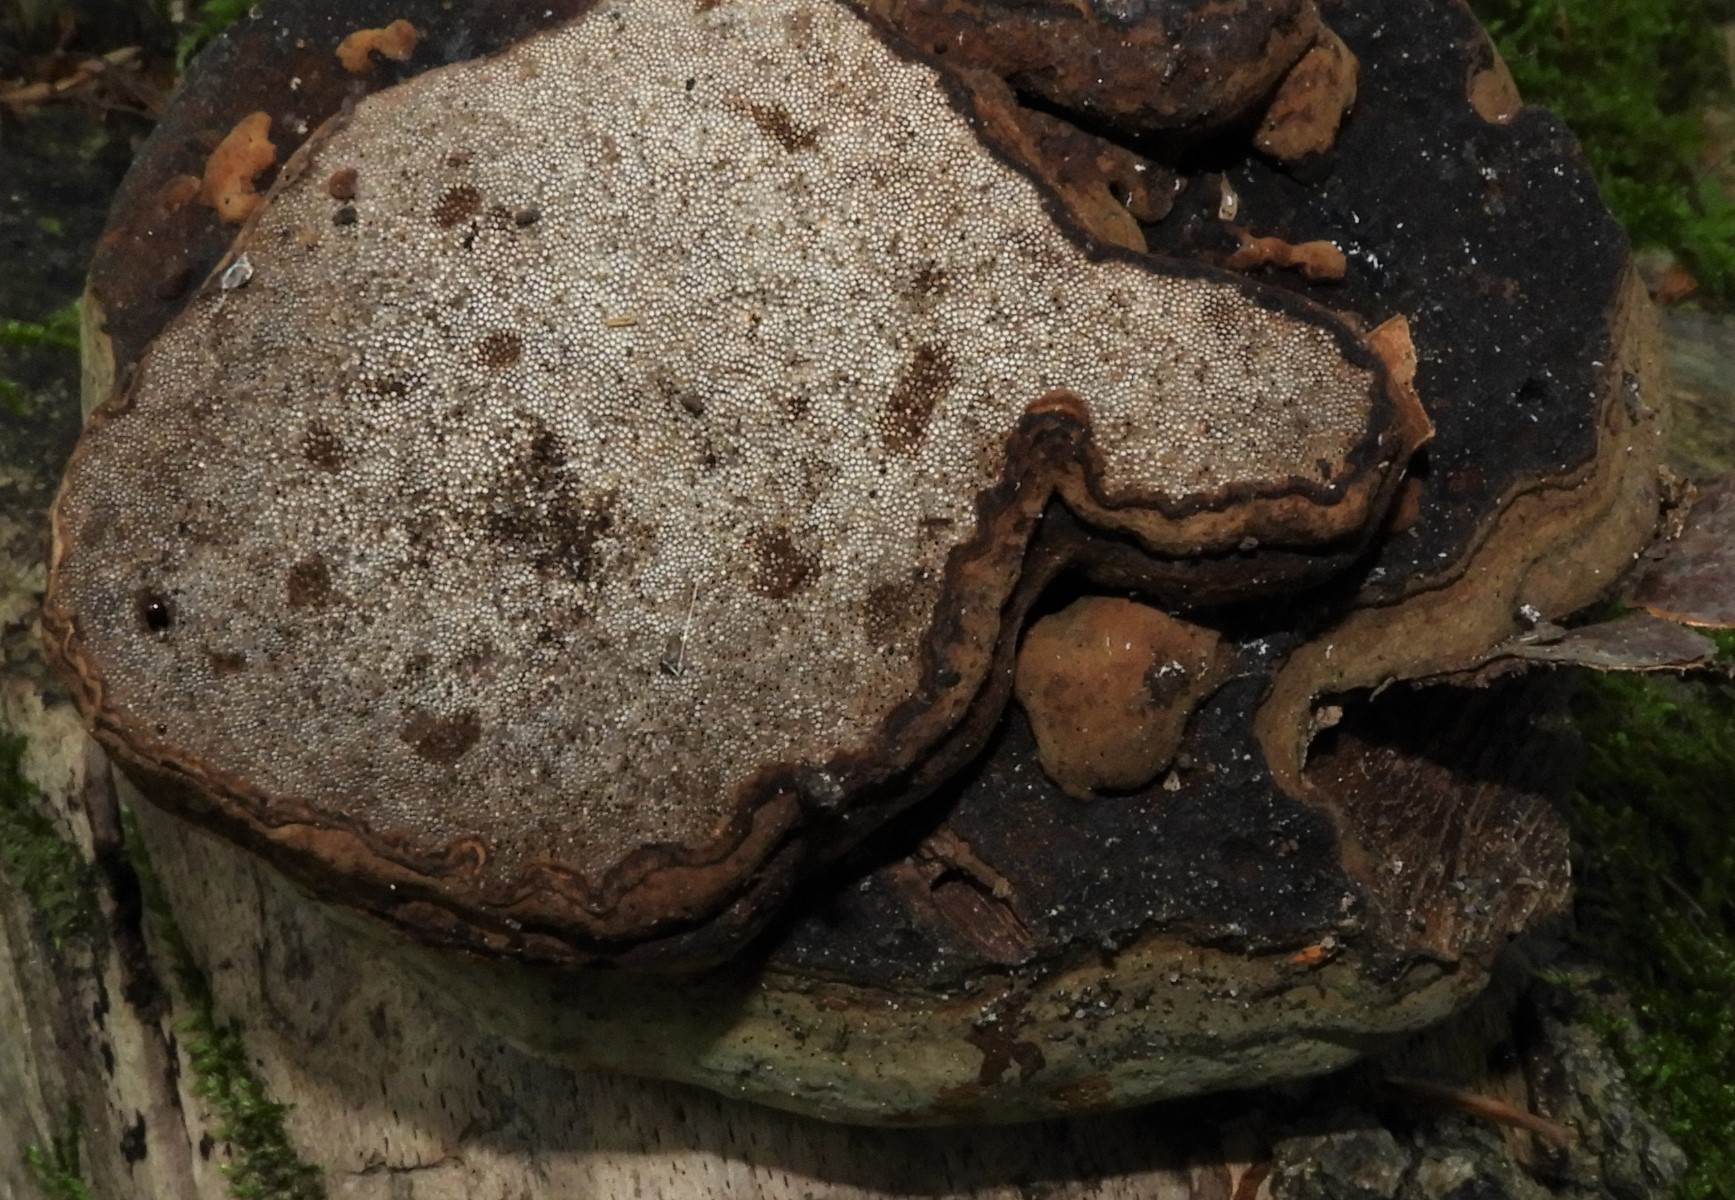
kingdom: Fungi
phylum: Basidiomycota
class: Agaricomycetes
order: Polyporales
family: Polyporaceae
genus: Fomes
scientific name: Fomes fomentarius
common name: tøndersvamp
